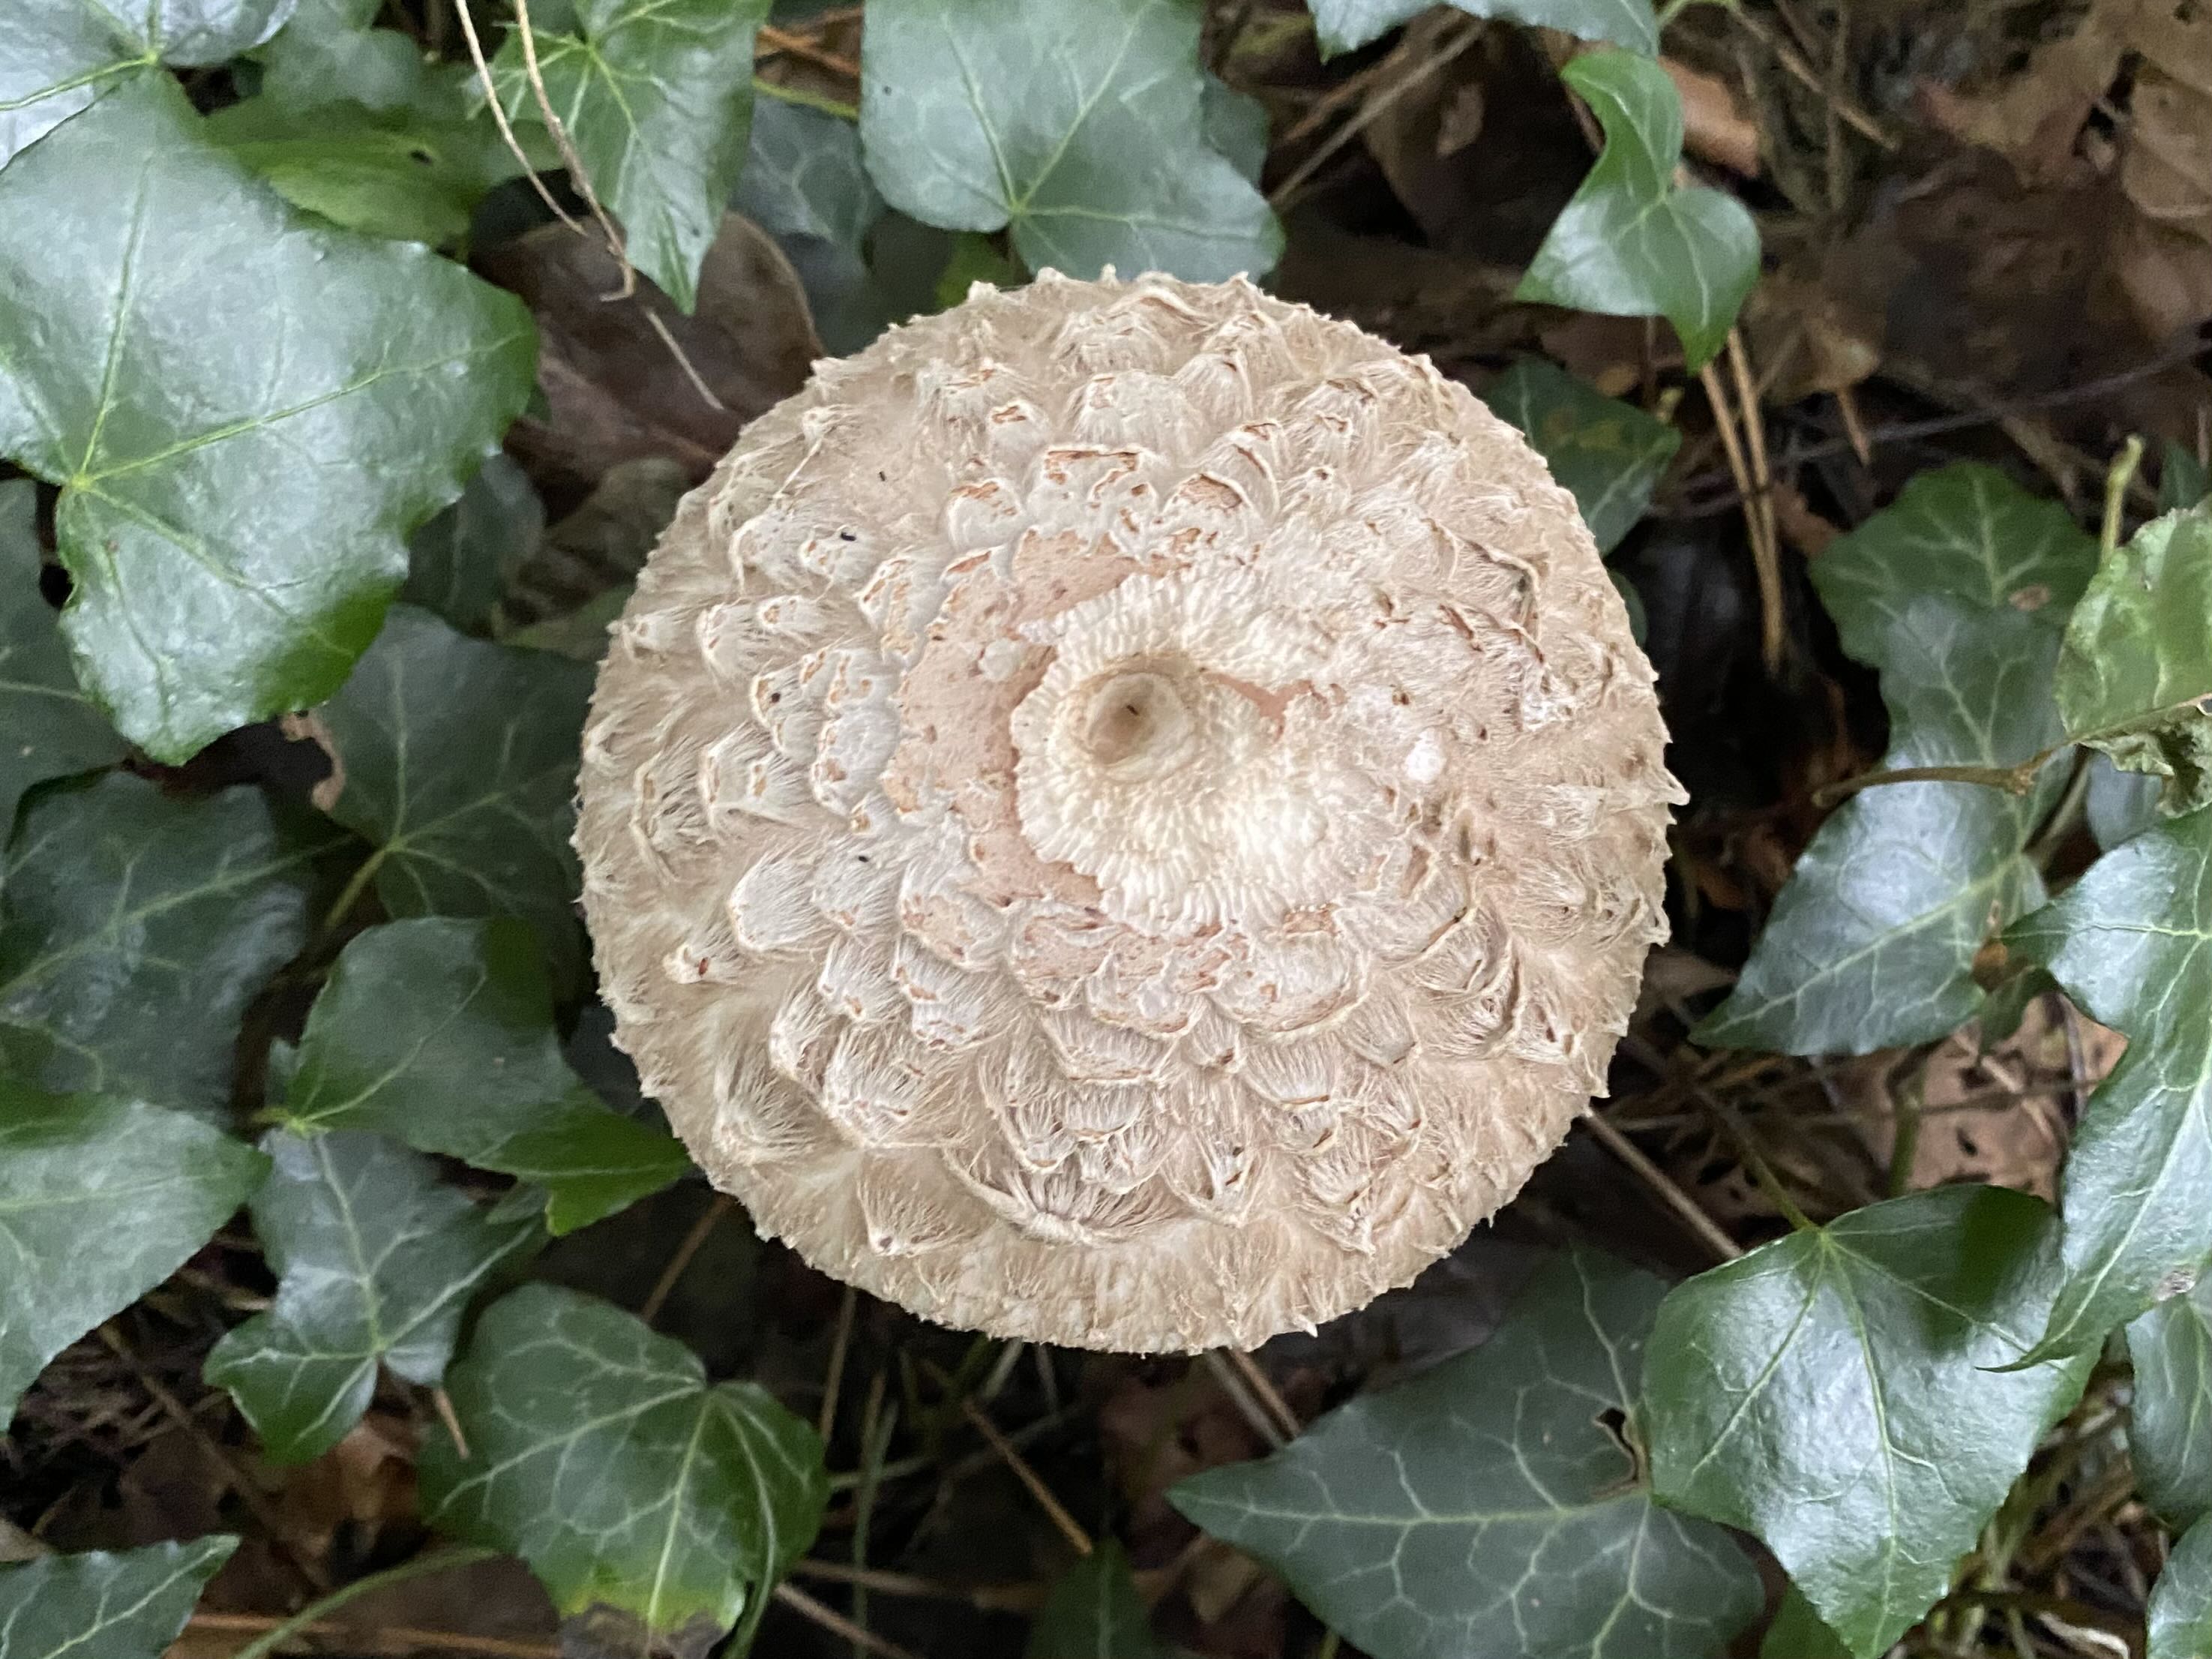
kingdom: Fungi
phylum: Basidiomycota
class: Agaricomycetes
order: Agaricales
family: Agaricaceae
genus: Chlorophyllum
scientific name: Chlorophyllum olivieri
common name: almindelig rabarberhat
